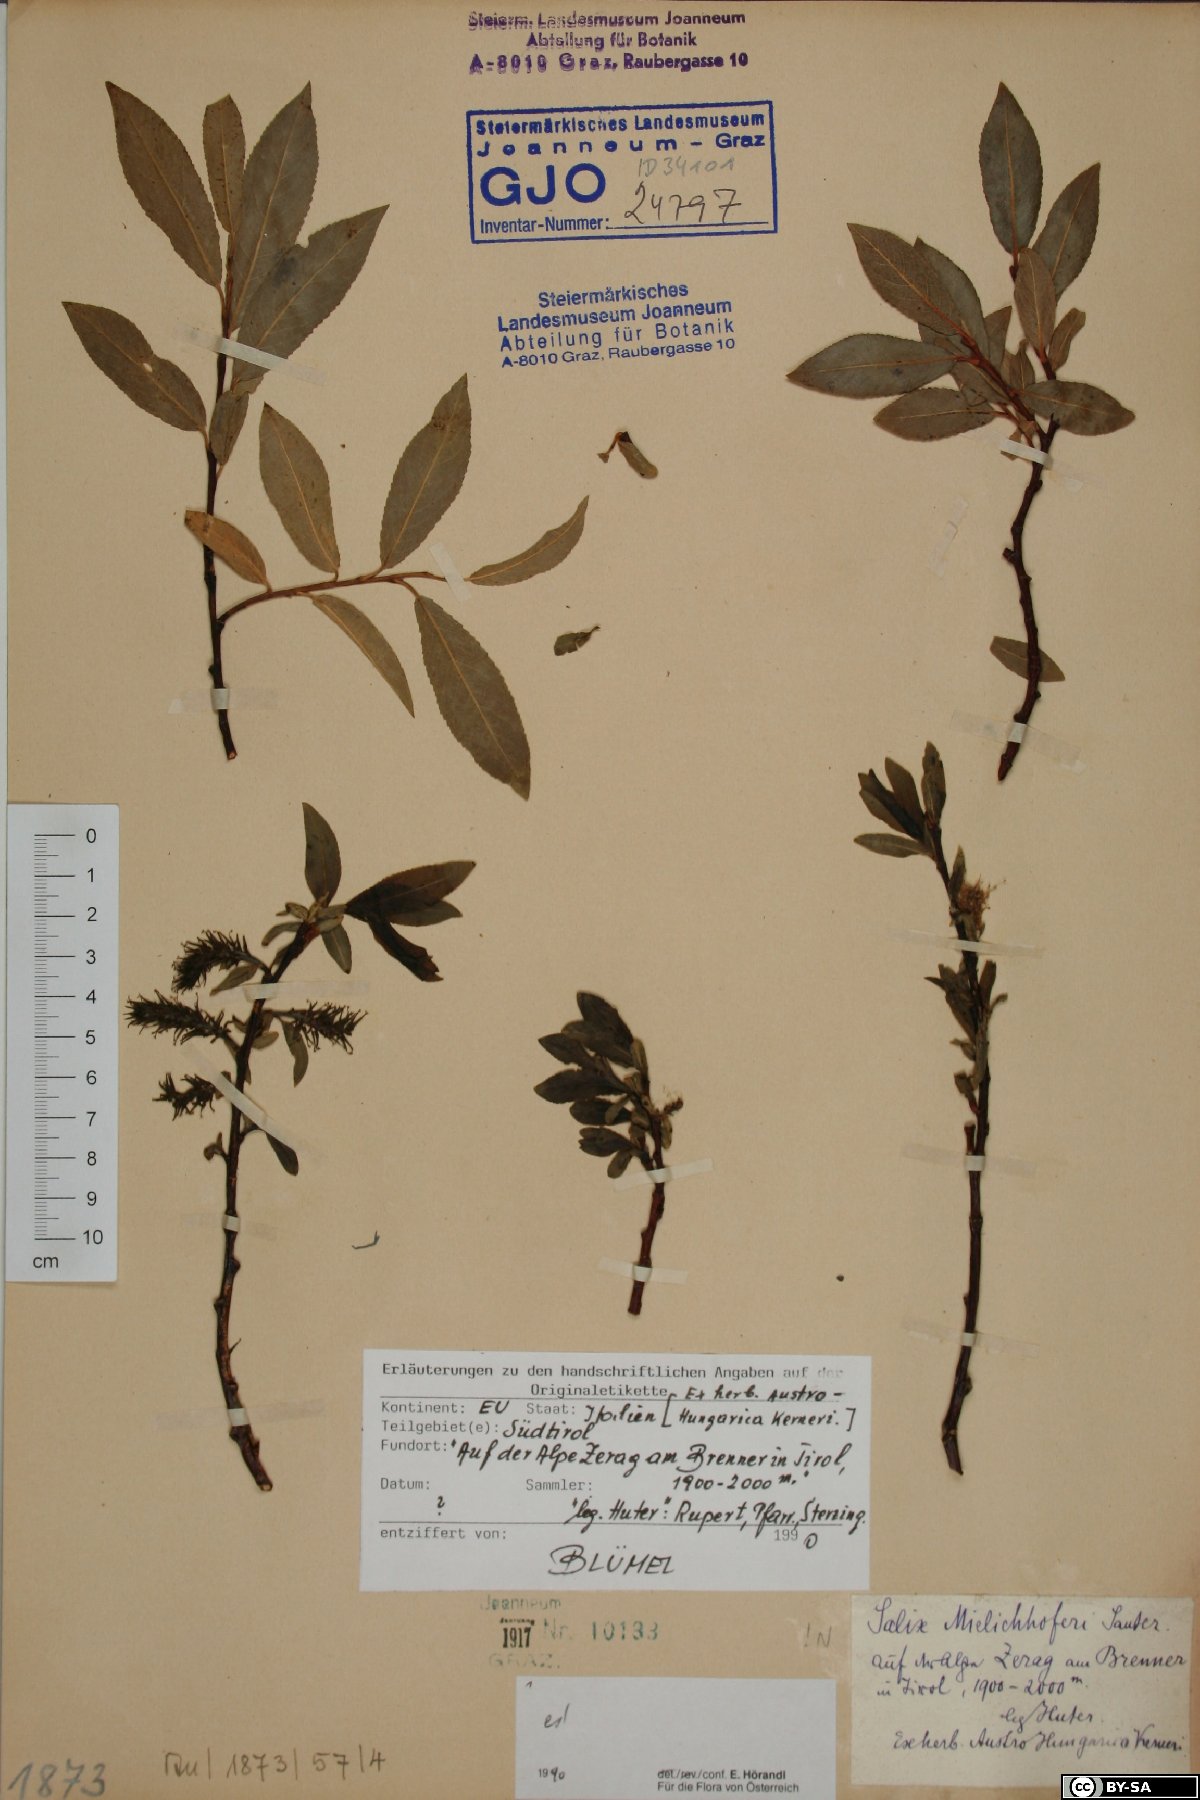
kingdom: Plantae
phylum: Tracheophyta
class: Magnoliopsida
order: Malpighiales
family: Salicaceae
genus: Salix
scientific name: Salix mielichhoferi
